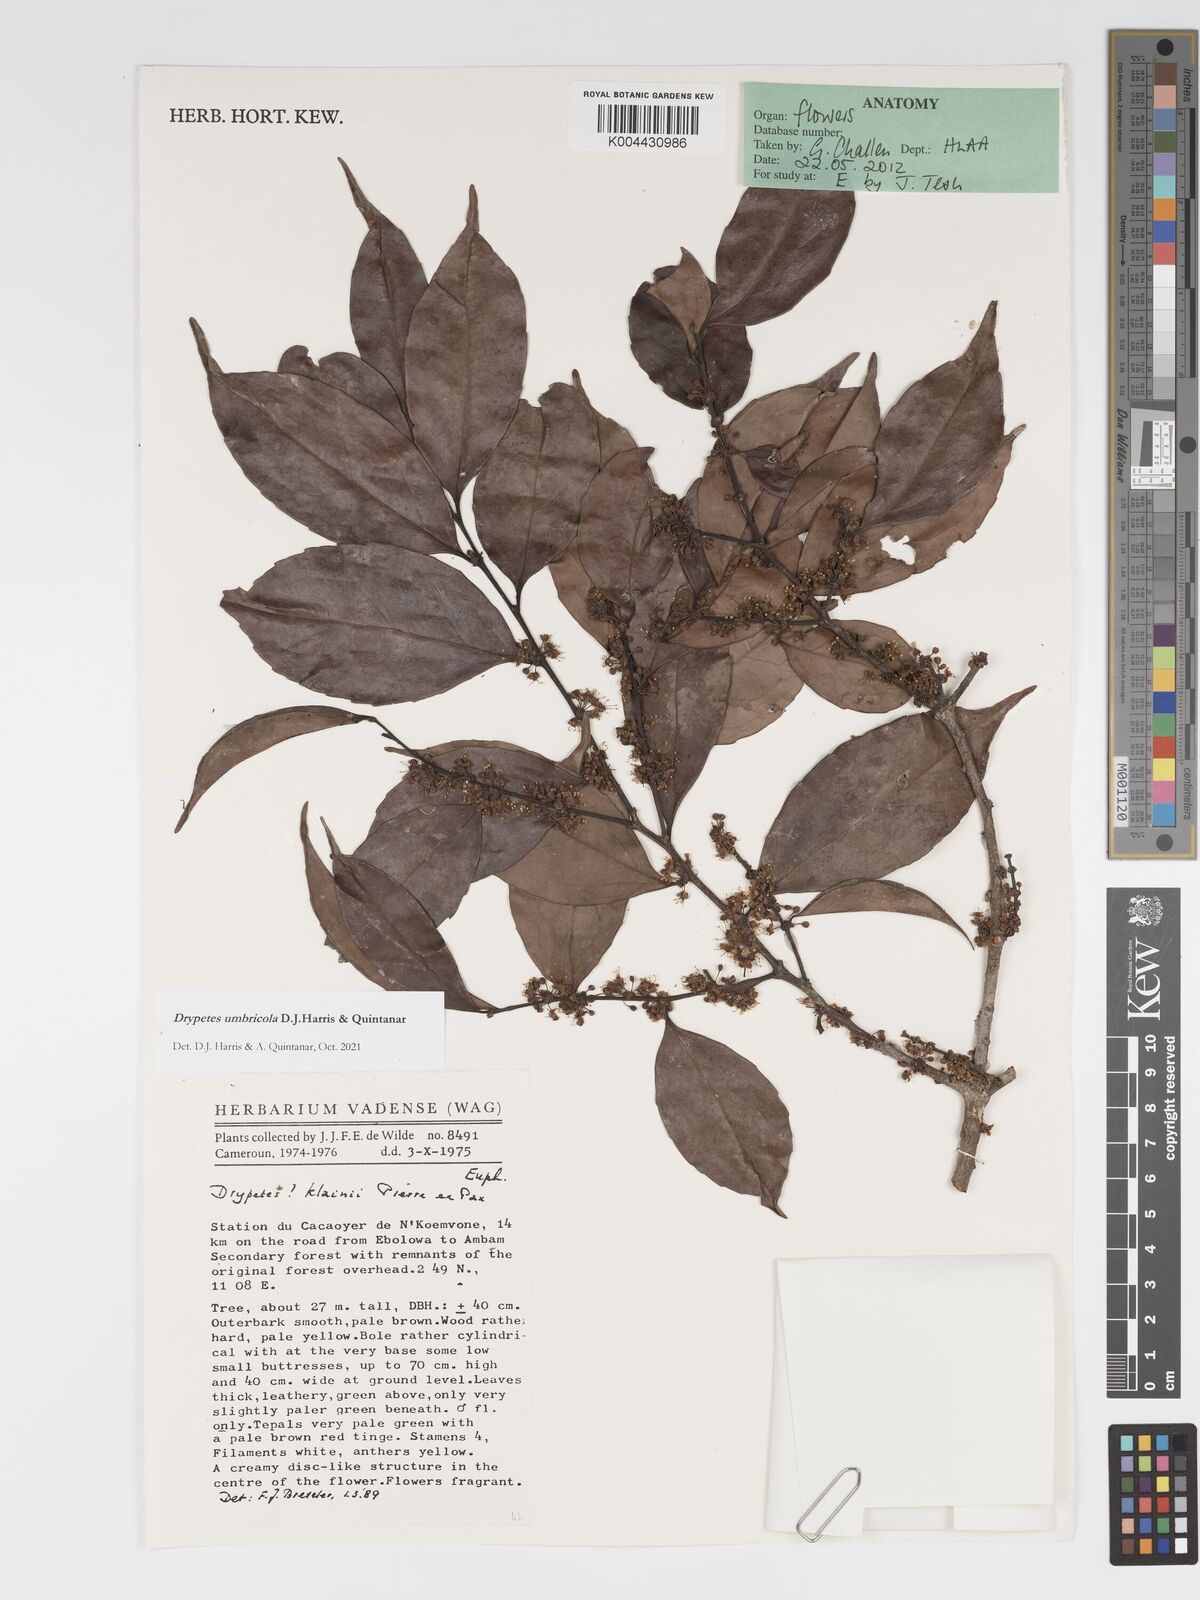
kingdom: Plantae
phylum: Tracheophyta
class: Magnoliopsida
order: Malpighiales
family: Putranjivaceae
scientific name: Putranjivaceae
